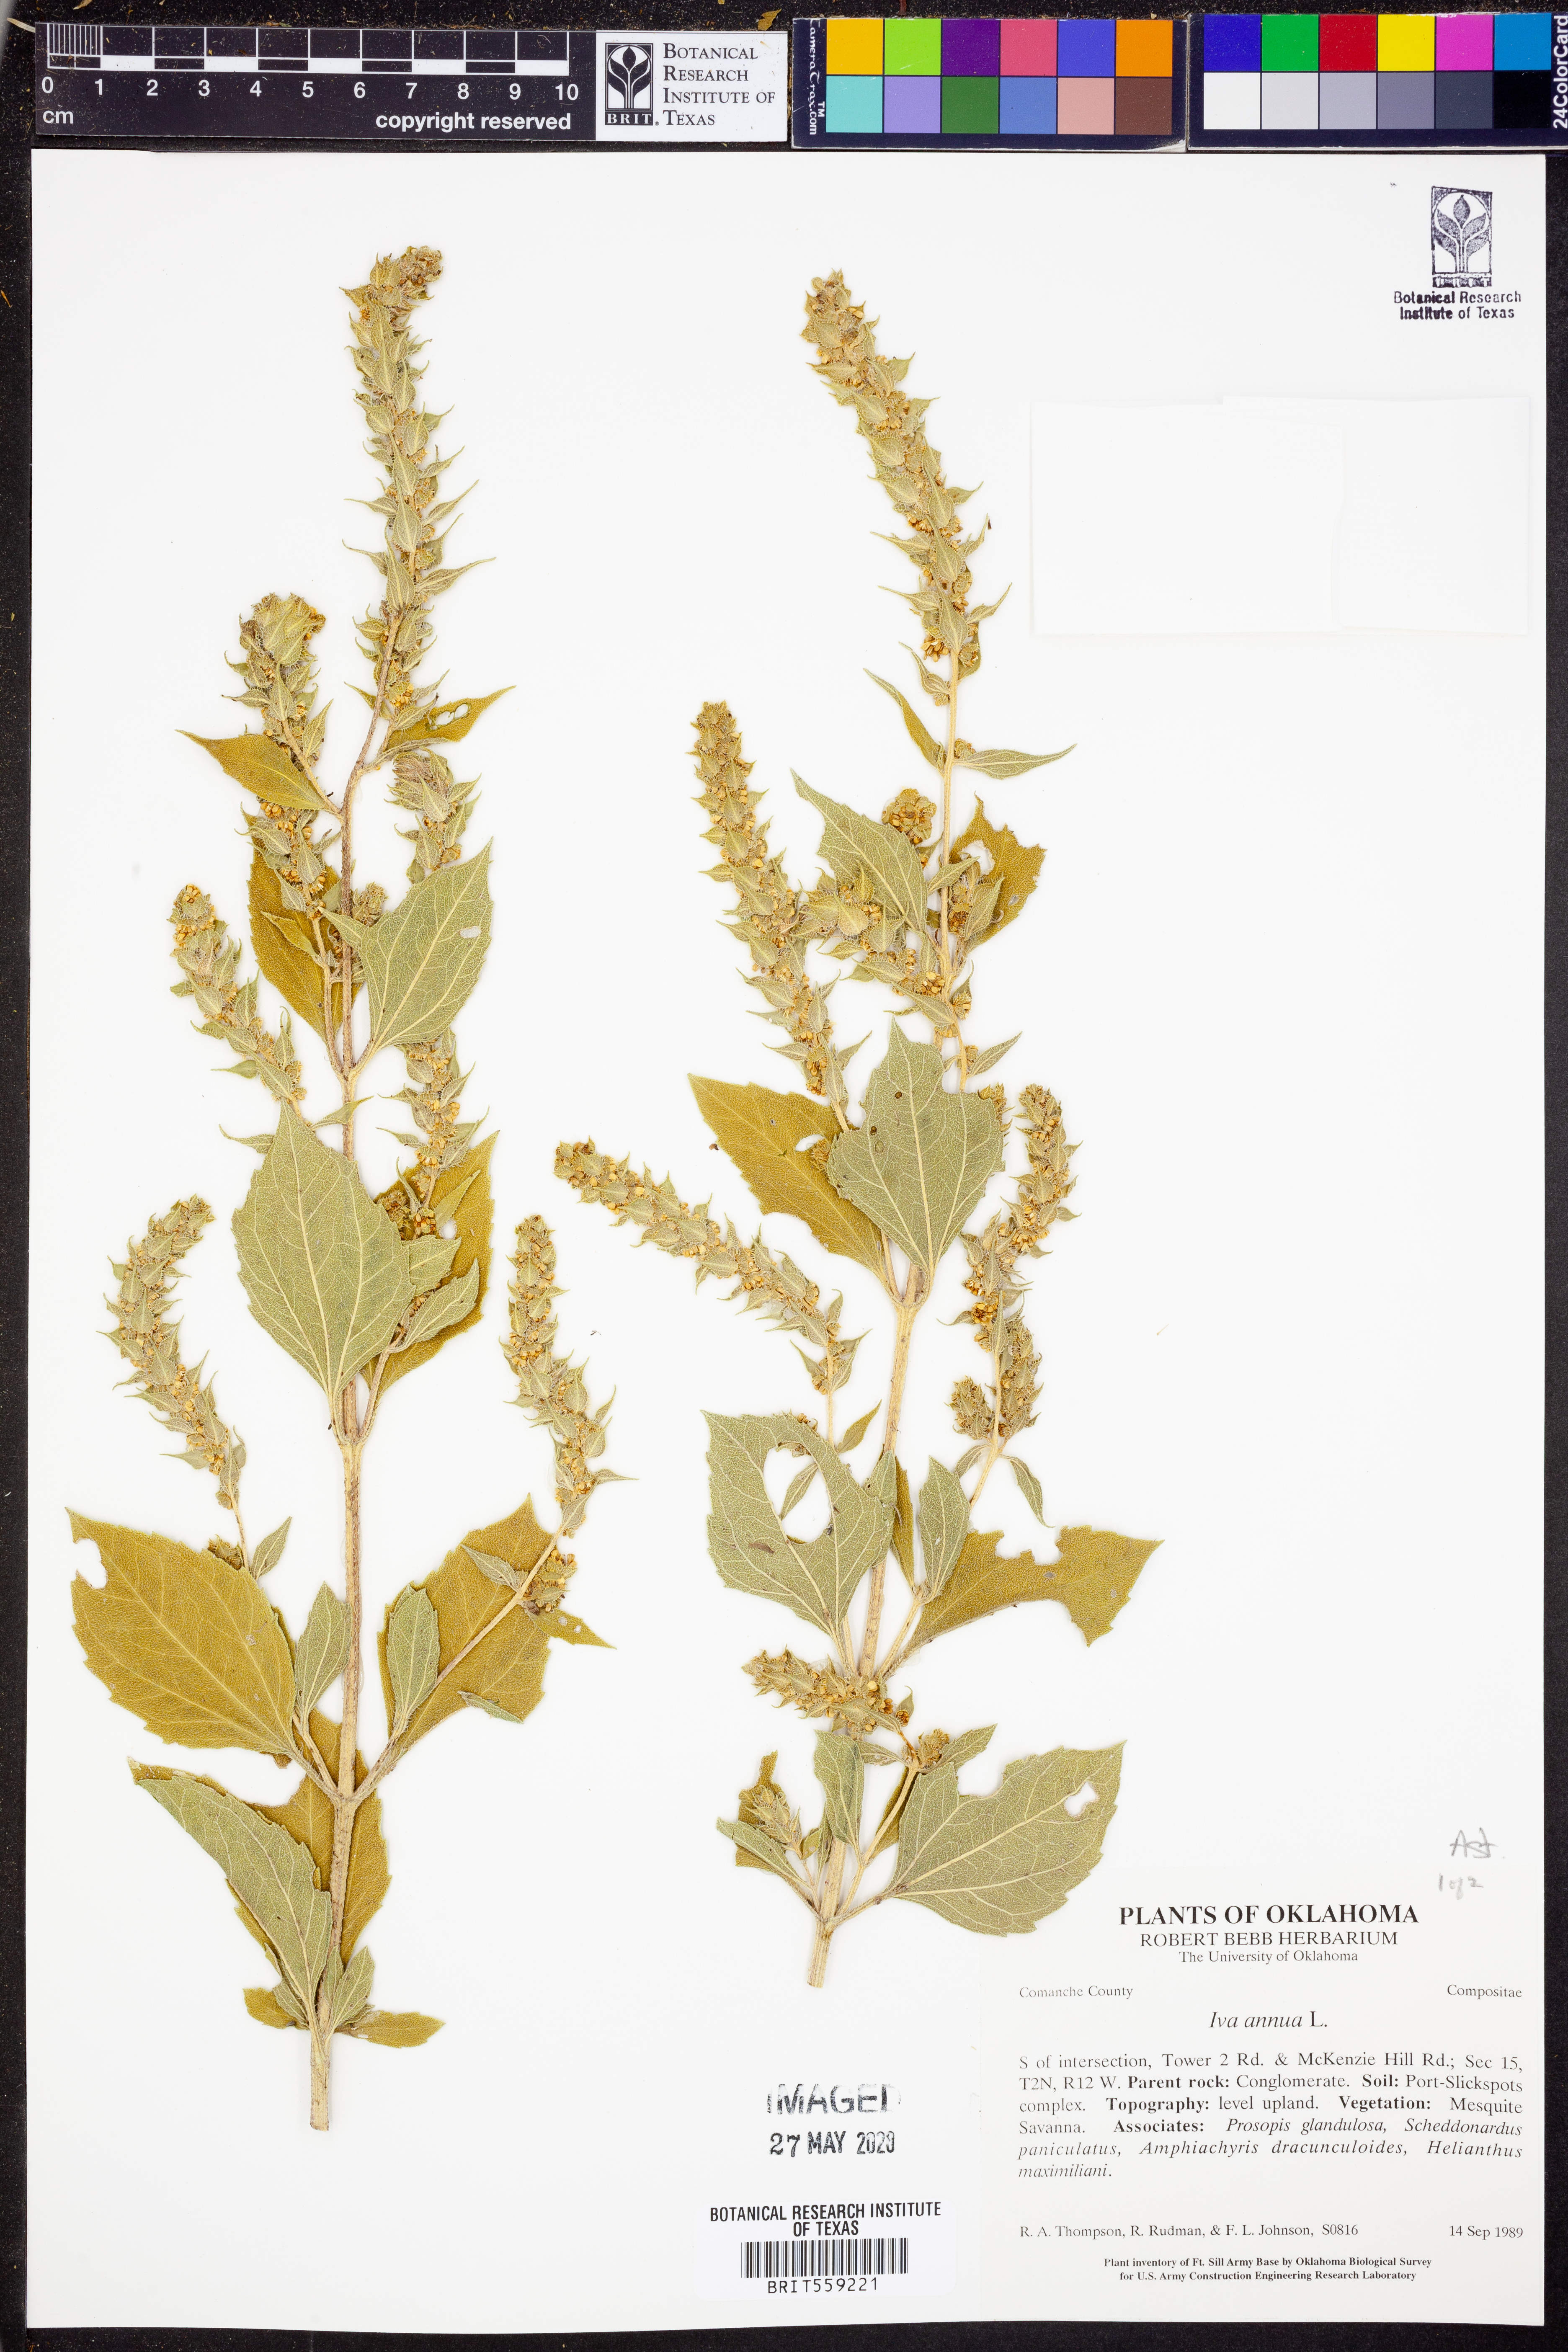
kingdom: Plantae
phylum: Tracheophyta
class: Magnoliopsida
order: Asterales
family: Asteraceae
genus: Iva
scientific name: Iva annua
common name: Marsh-elder
